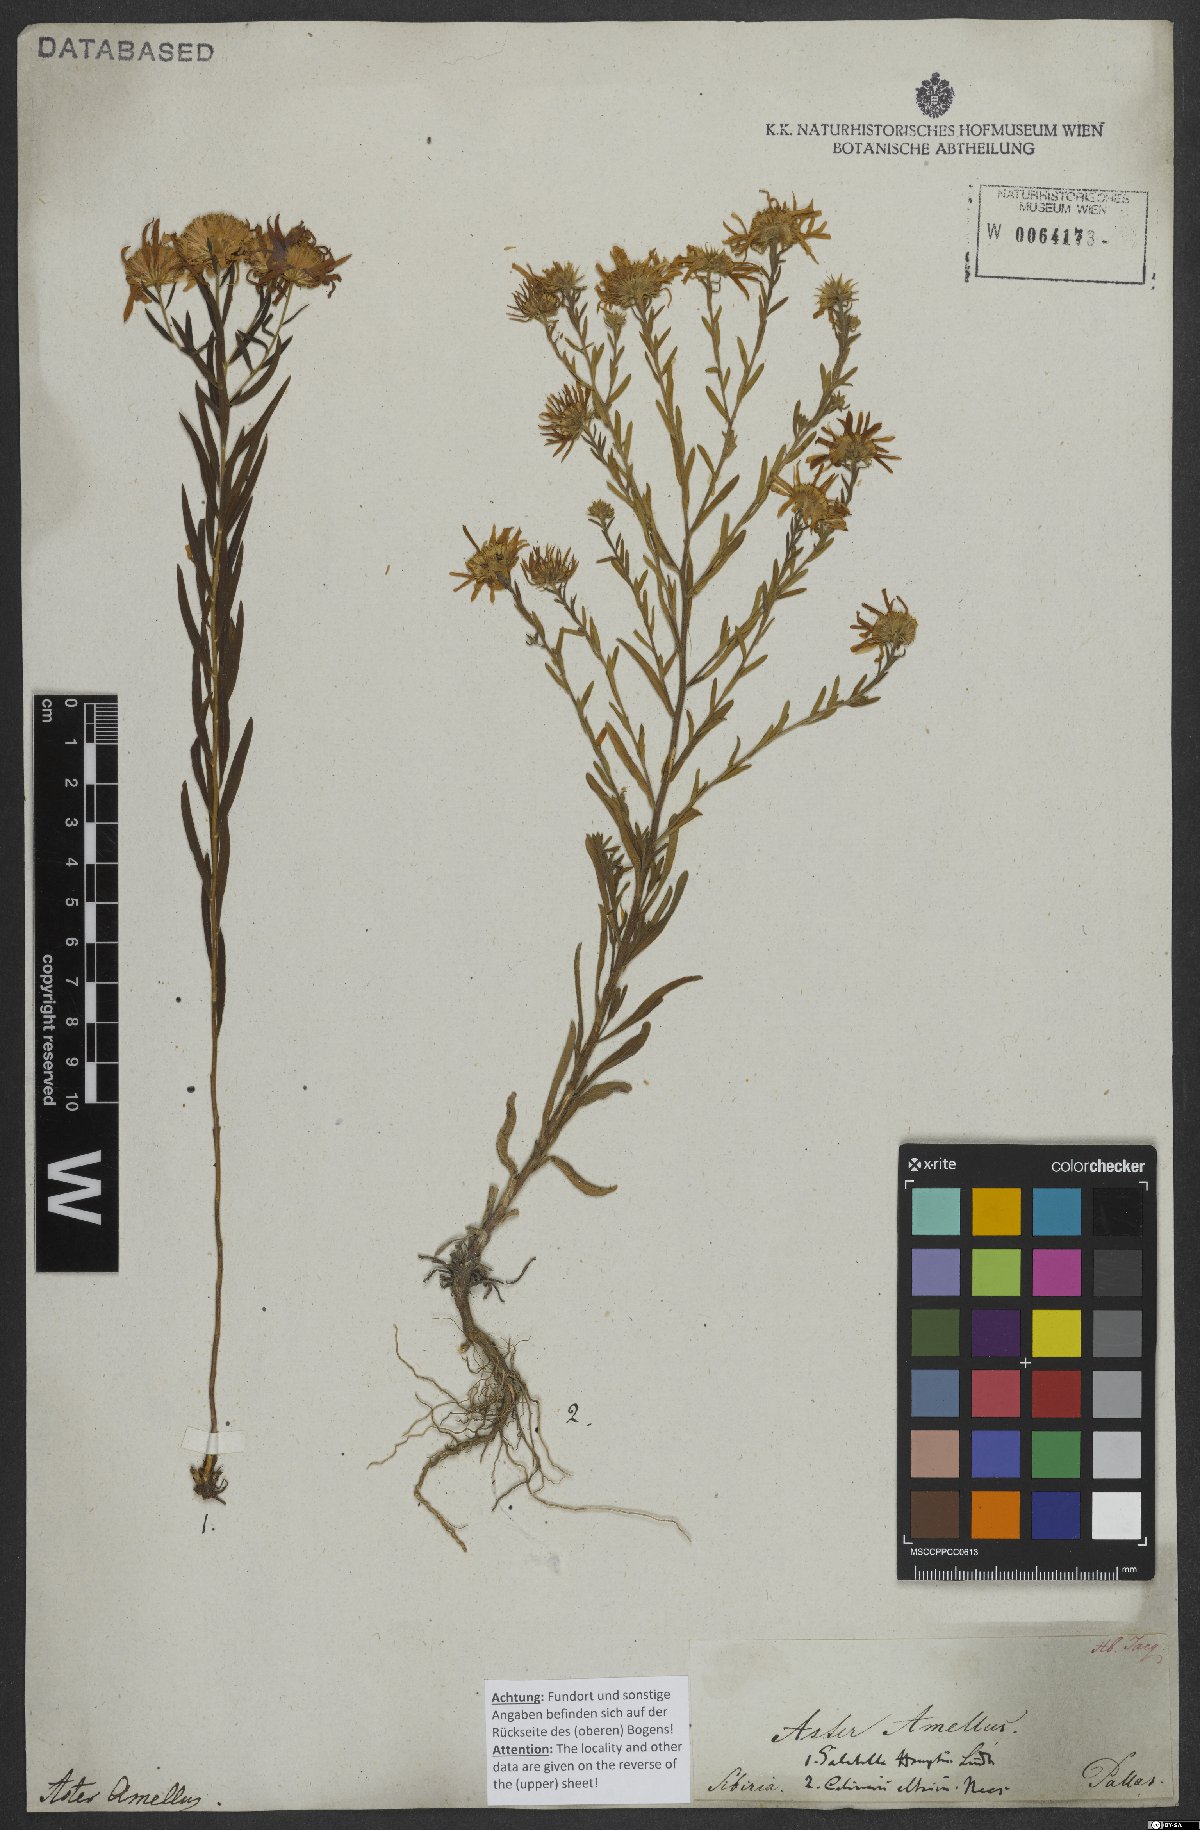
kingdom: Plantae
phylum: Tracheophyta
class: Magnoliopsida
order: Asterales
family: Asteraceae
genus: Aster
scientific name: Aster amellus
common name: European michaelmas daisy
